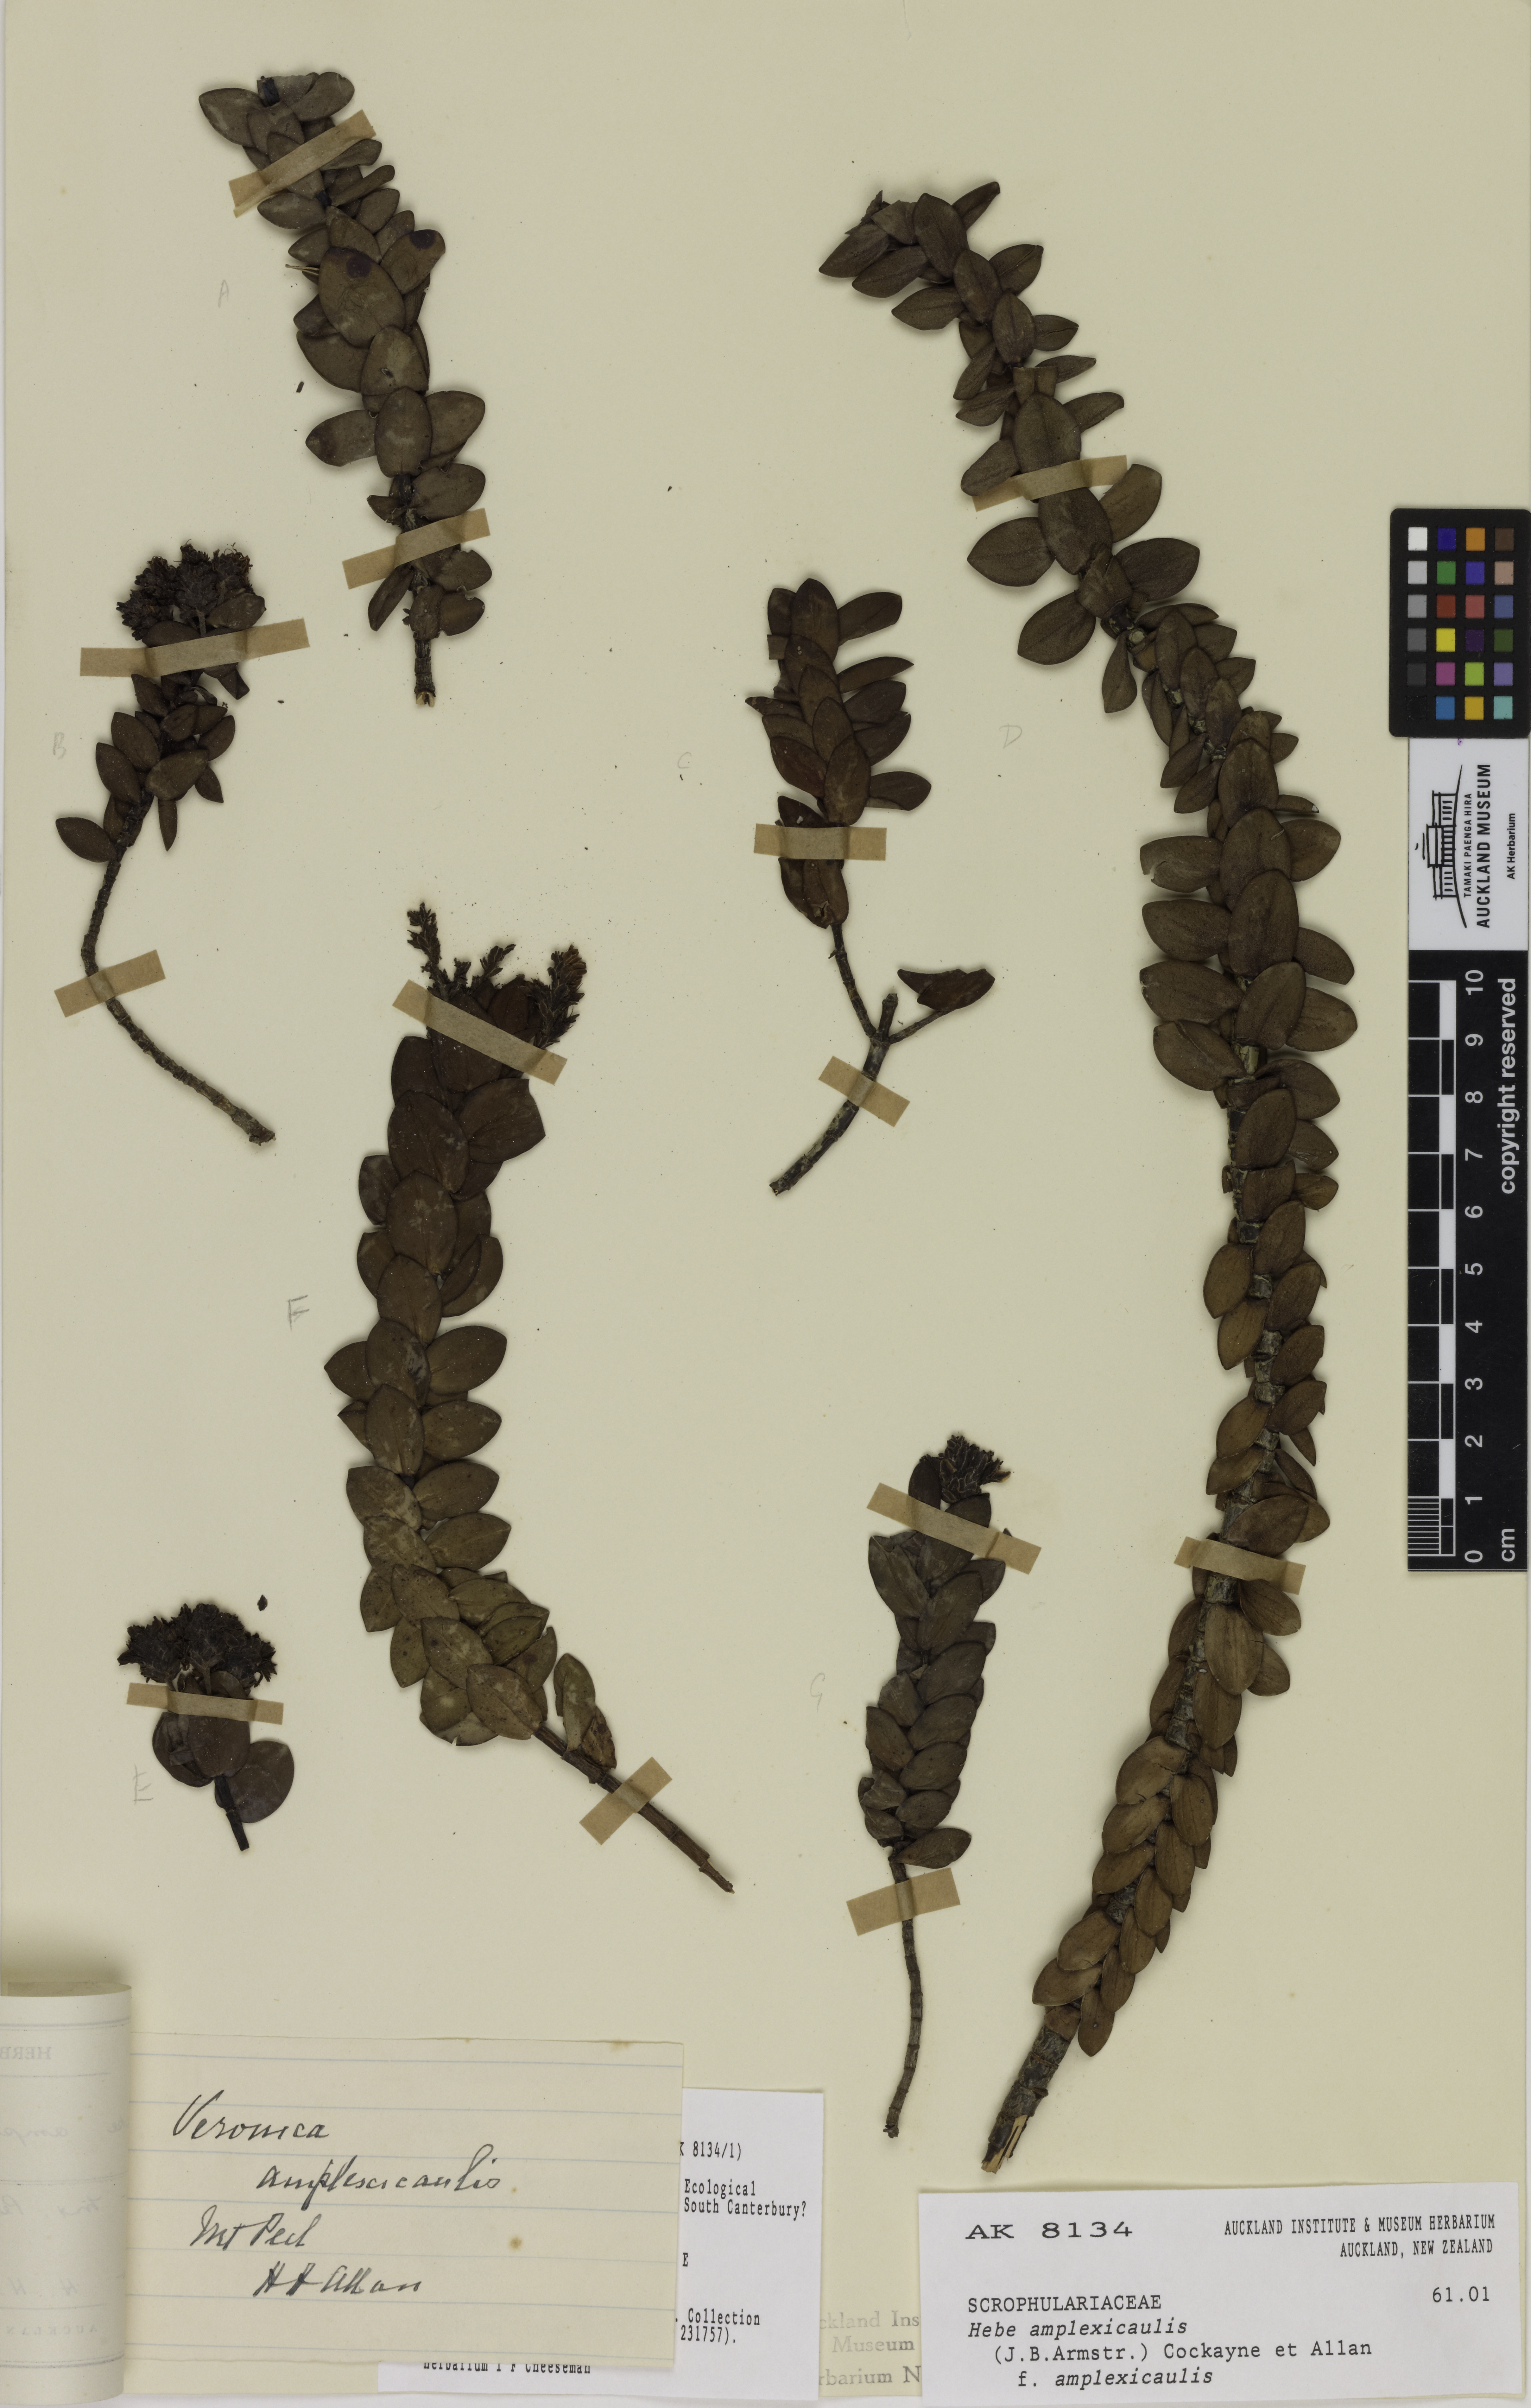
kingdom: Plantae
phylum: Tracheophyta
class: Magnoliopsida
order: Lamiales
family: Plantaginaceae
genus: Veronica
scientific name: Veronica amplexicaulis
